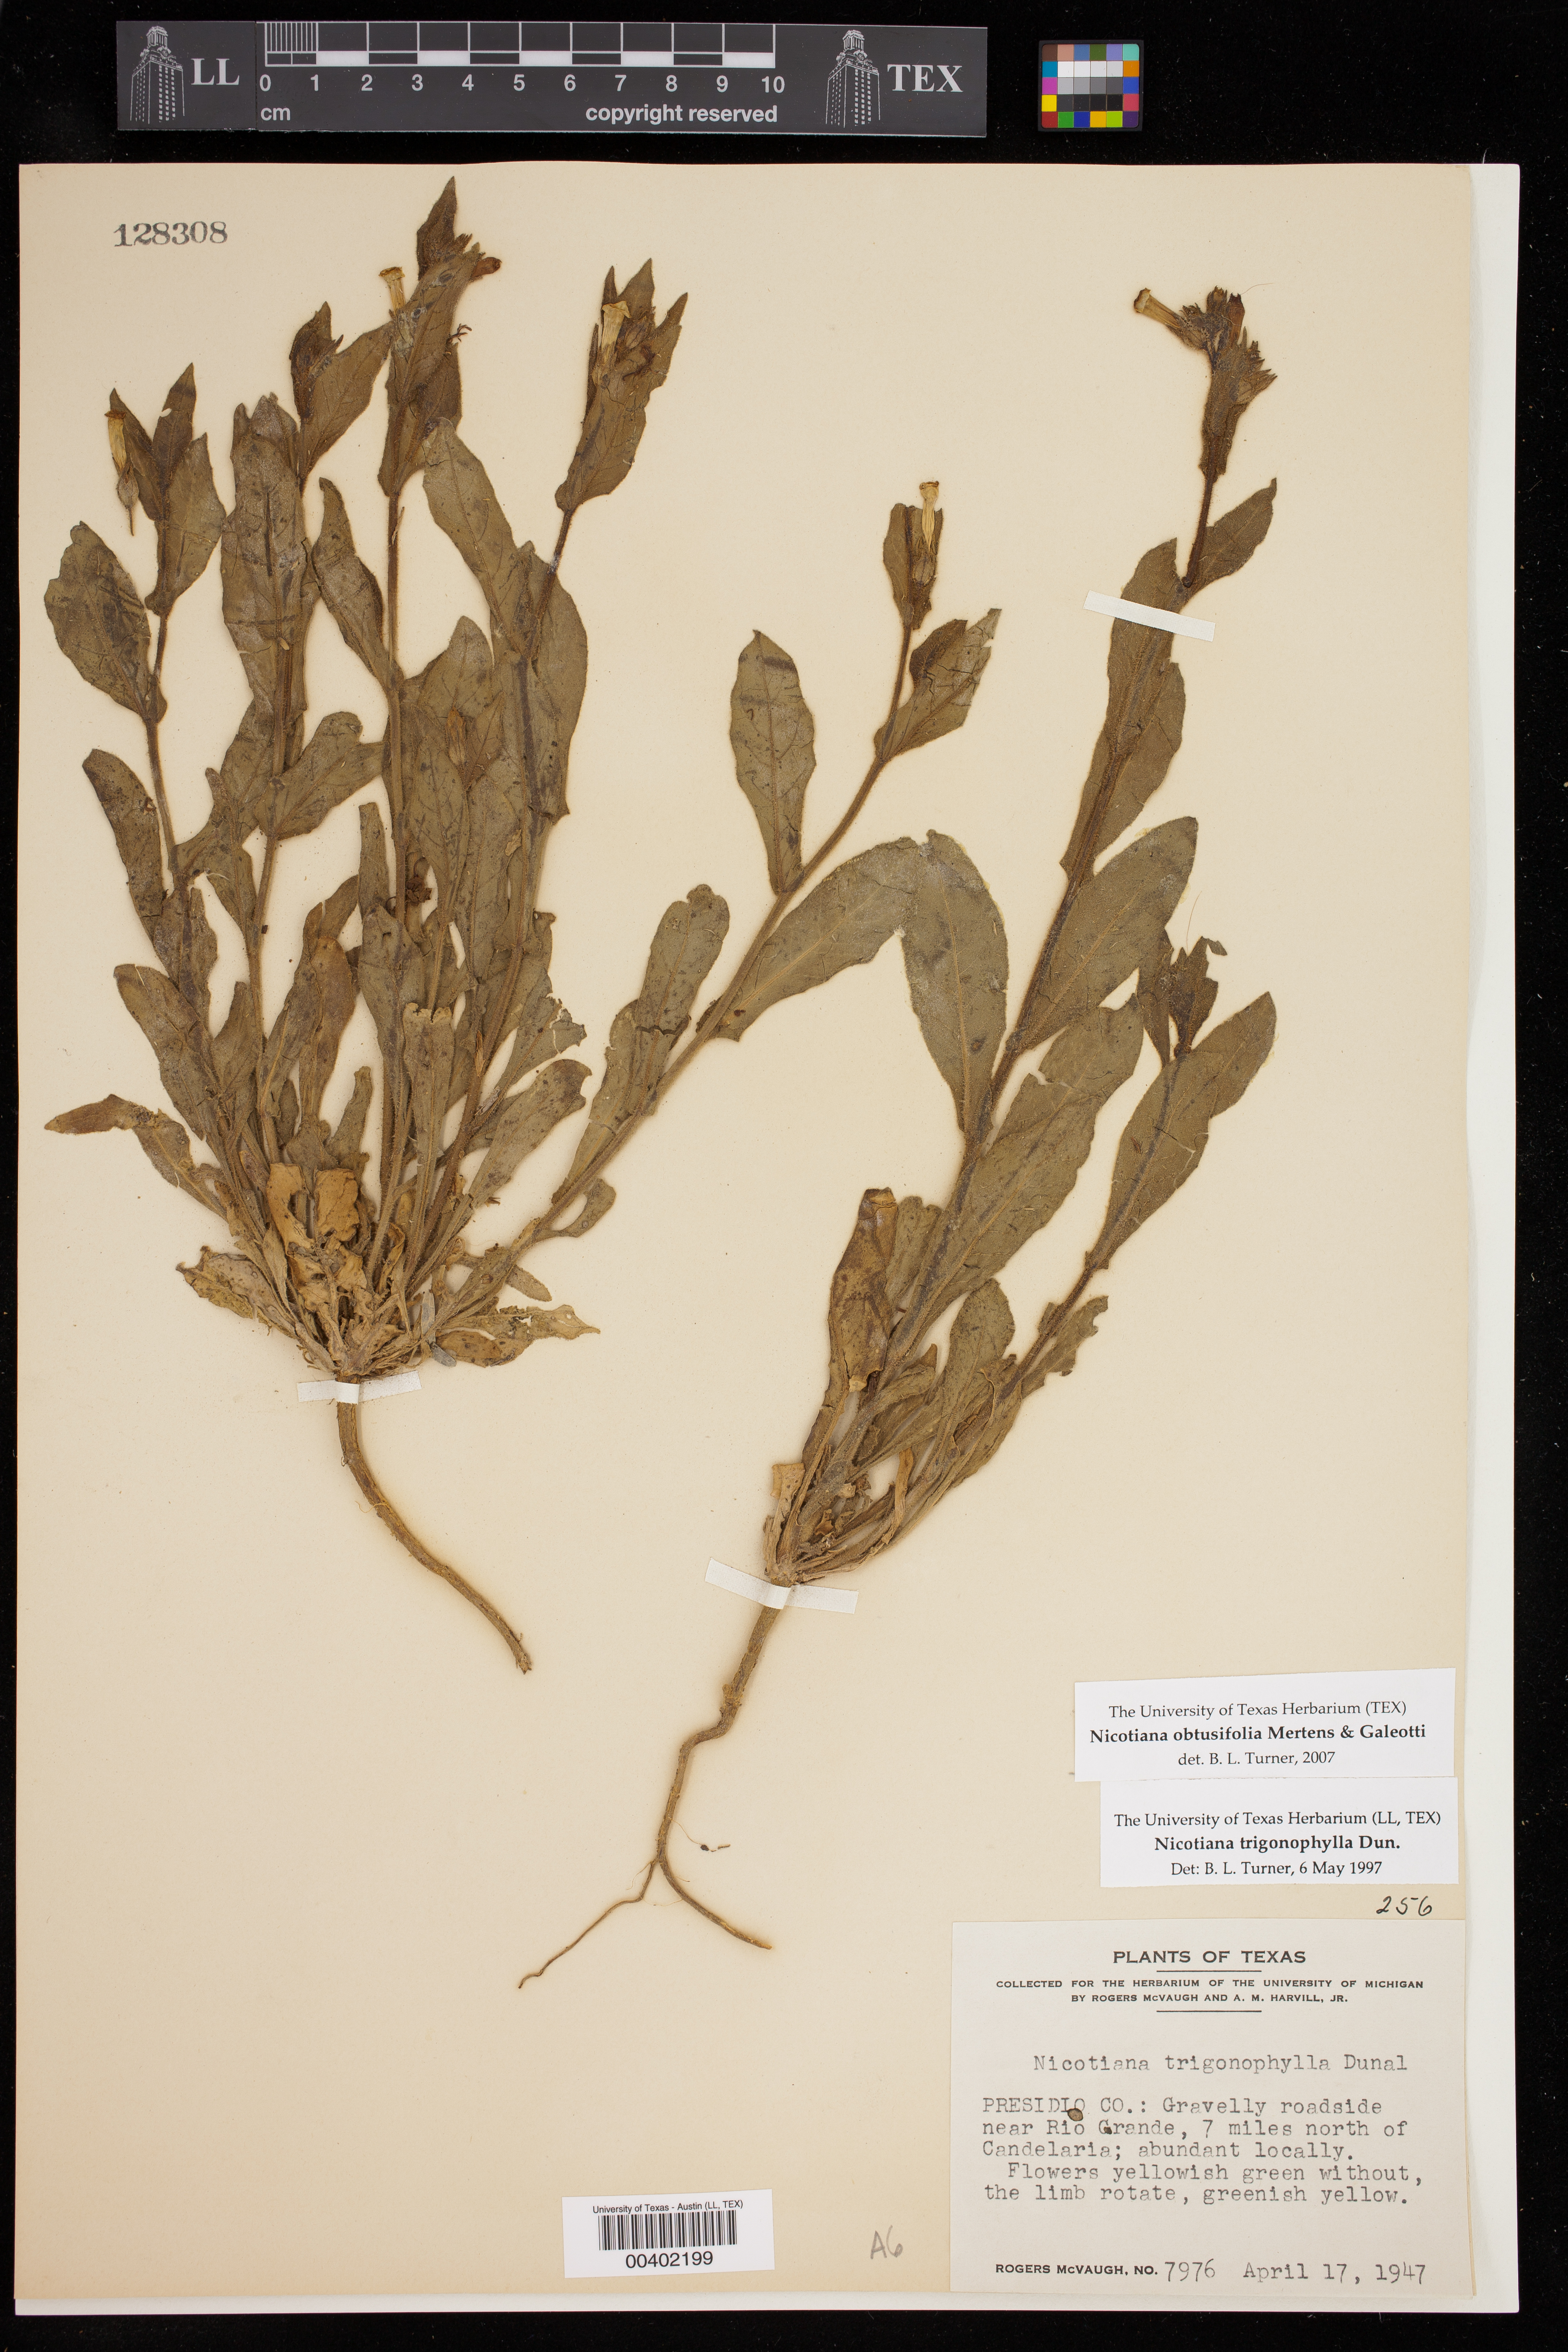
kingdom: Plantae
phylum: Tracheophyta
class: Magnoliopsida
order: Solanales
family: Solanaceae
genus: Nicotiana
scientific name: Nicotiana obtusifolia
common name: Desert tobacco
